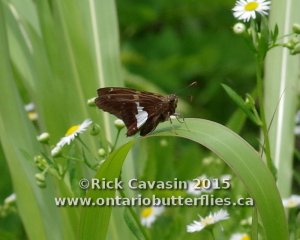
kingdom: Animalia
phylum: Arthropoda
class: Insecta
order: Lepidoptera
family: Hesperiidae
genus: Epargyreus
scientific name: Epargyreus clarus
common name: Silver-spotted Skipper
